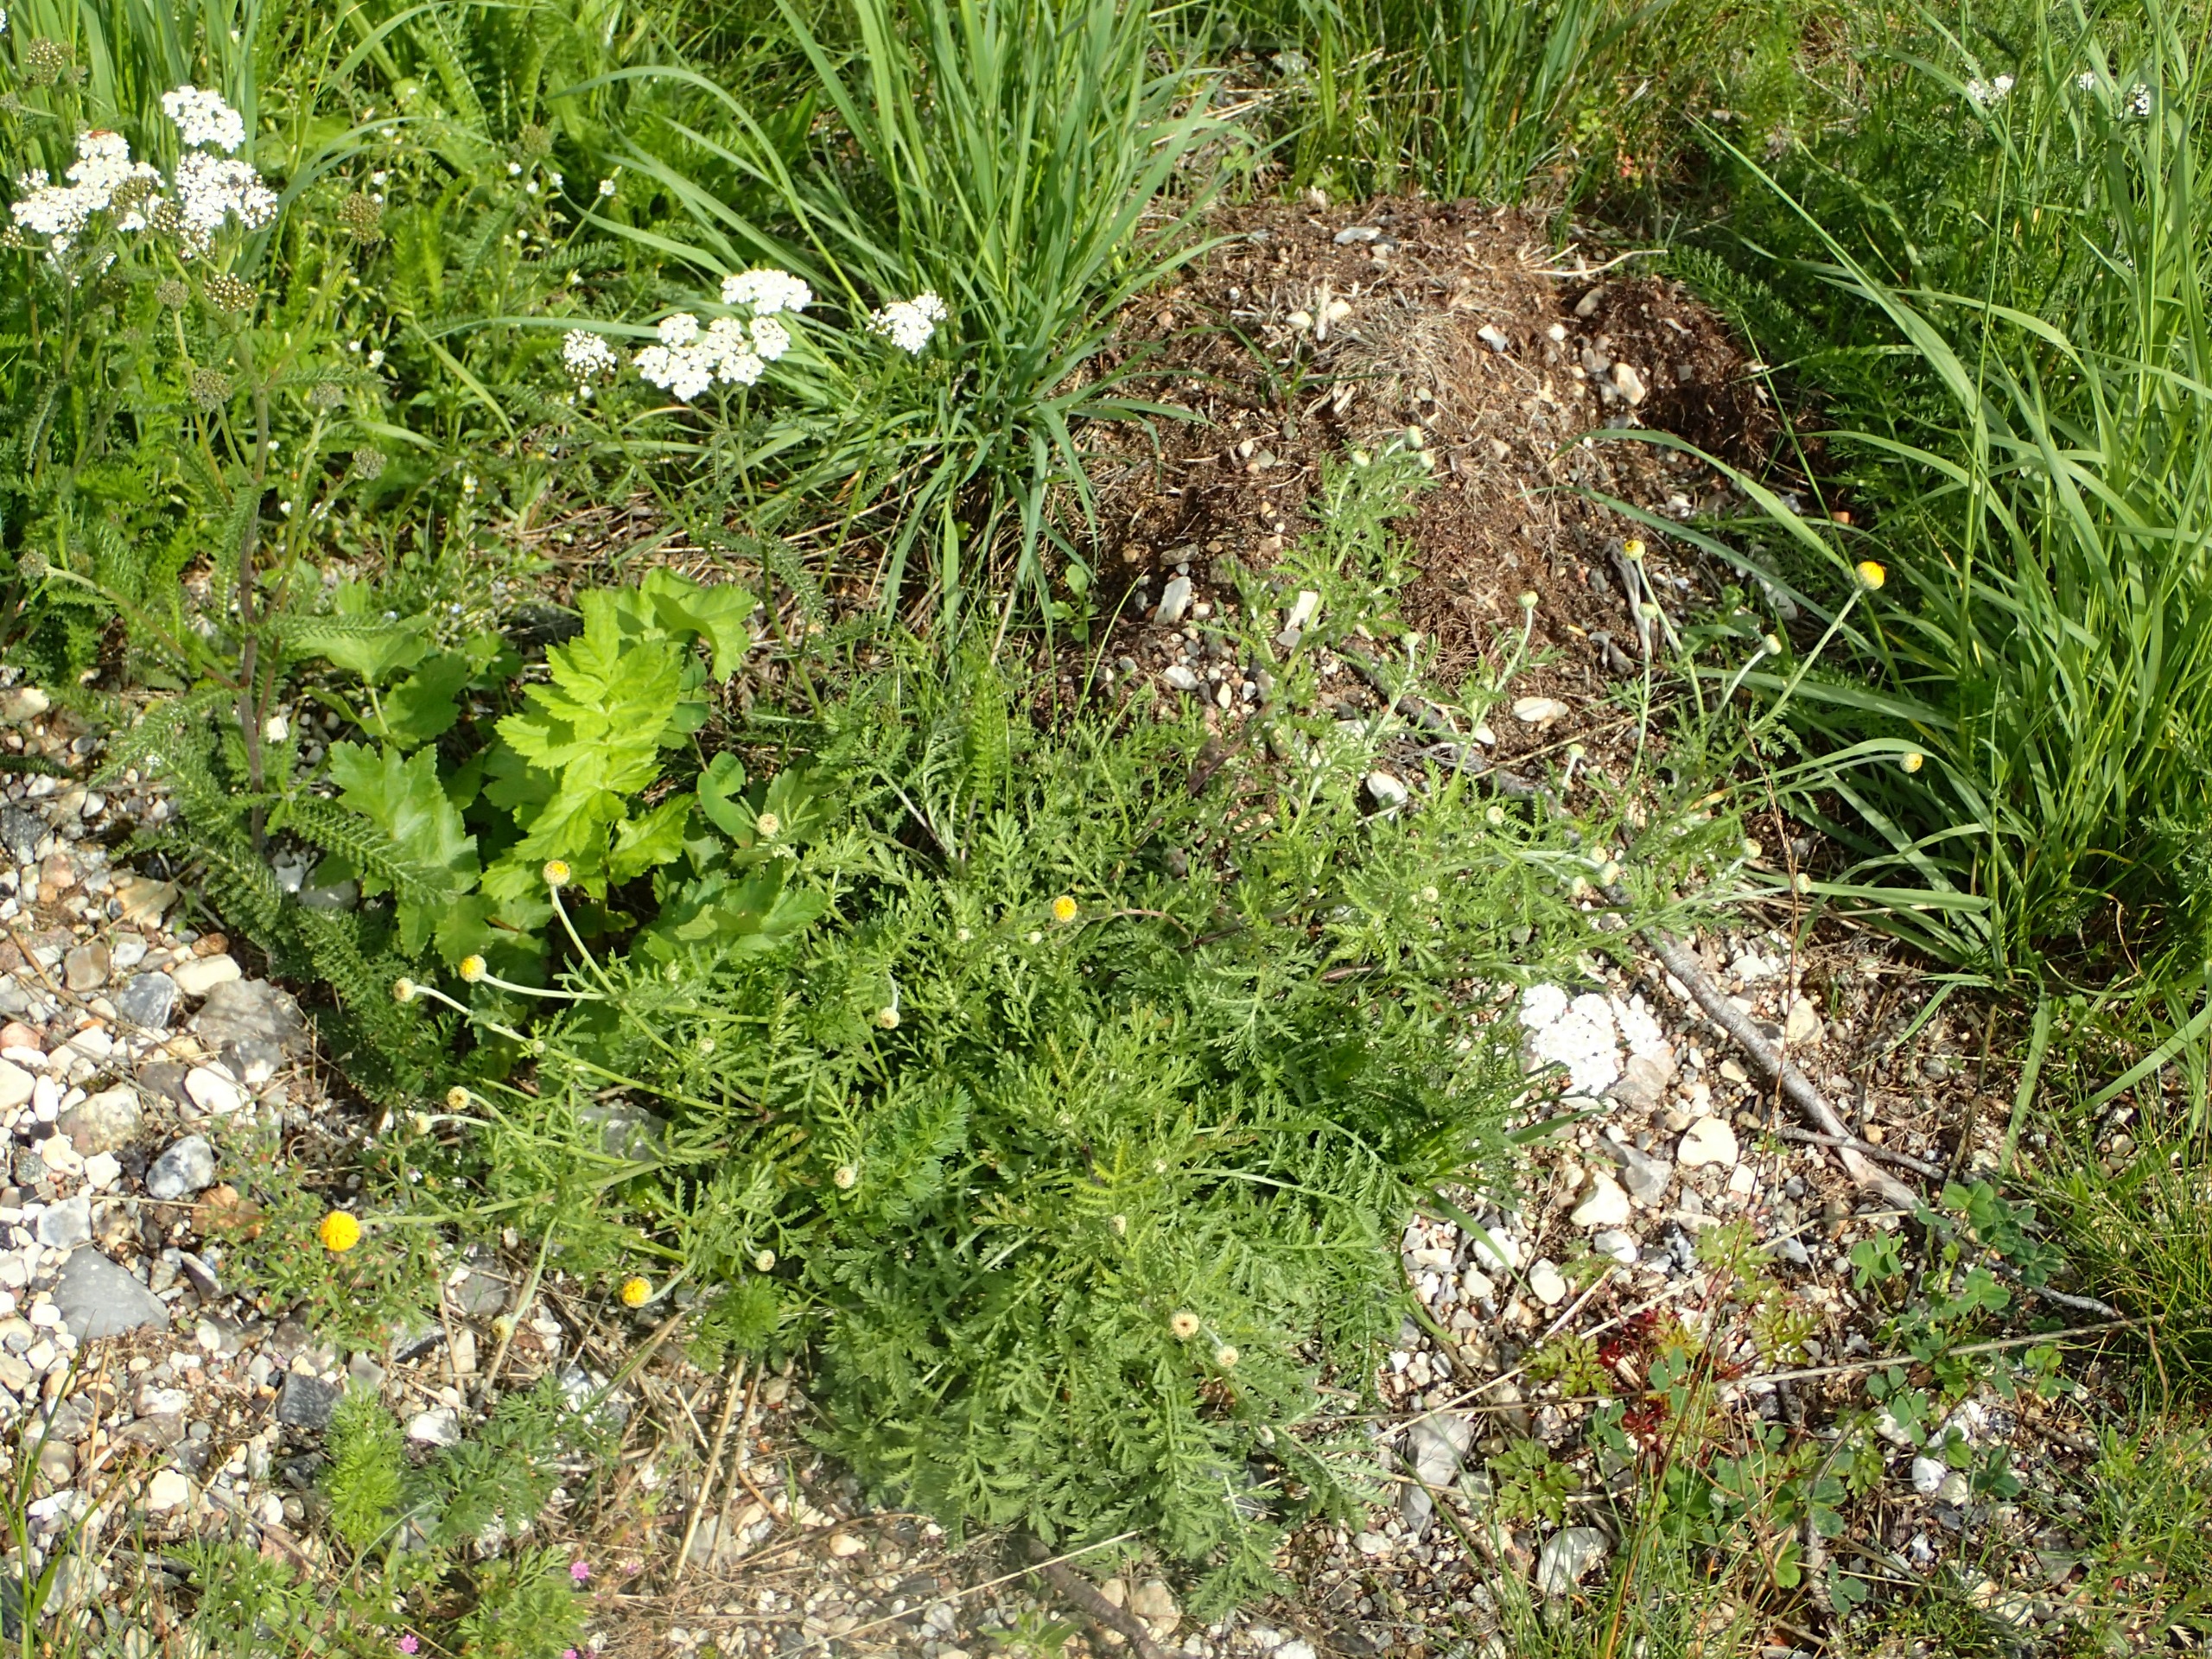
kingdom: Plantae
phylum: Tracheophyta
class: Magnoliopsida
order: Asterales
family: Asteraceae
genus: Cota
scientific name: Cota tinctoria
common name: Farve-gåseurt
